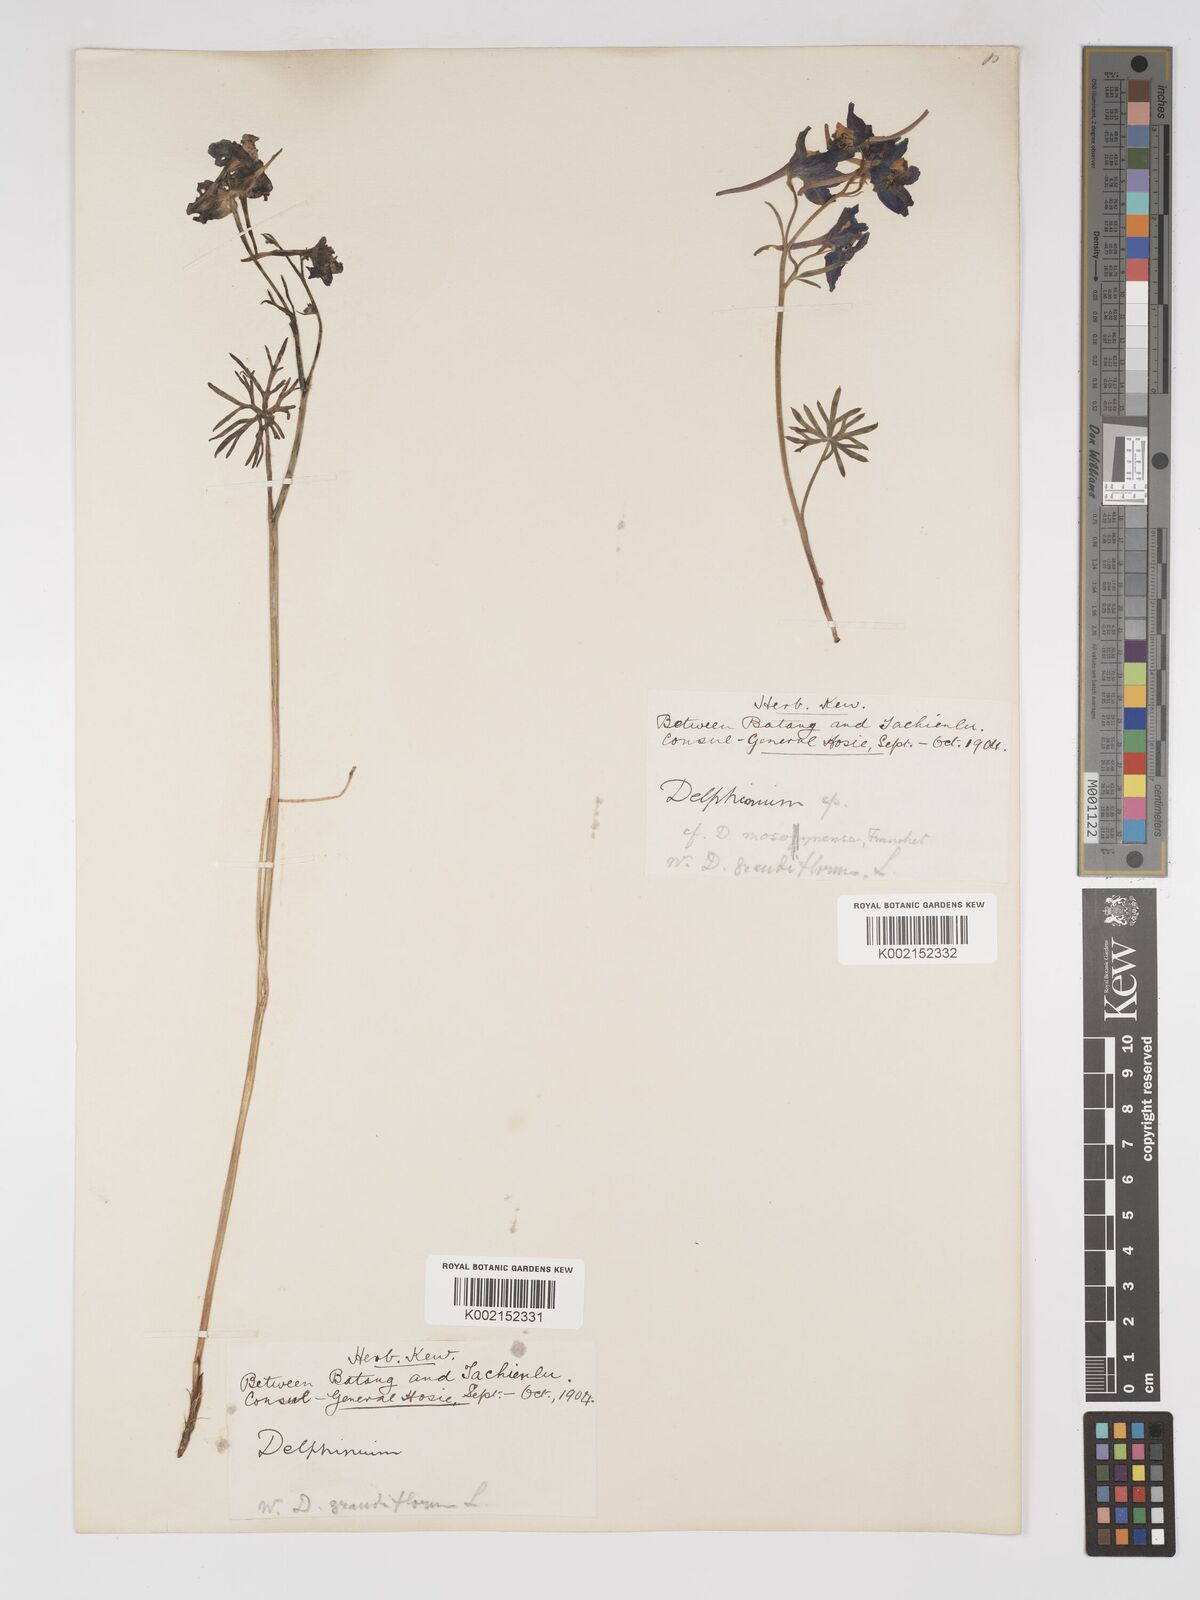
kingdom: Plantae
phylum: Tracheophyta
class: Magnoliopsida
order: Ranunculales
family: Ranunculaceae
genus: Delphinium
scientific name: Delphinium kamaonense
